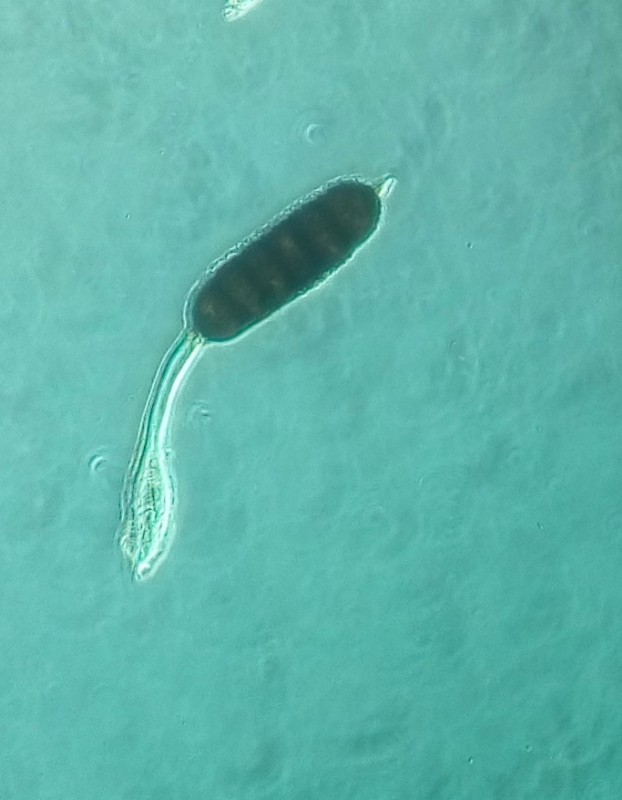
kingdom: Fungi
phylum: Basidiomycota
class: Pucciniomycetes
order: Pucciniales
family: Phragmidiaceae
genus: Phragmidium
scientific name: Phragmidium bulbosum
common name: brombær-flercellerust
